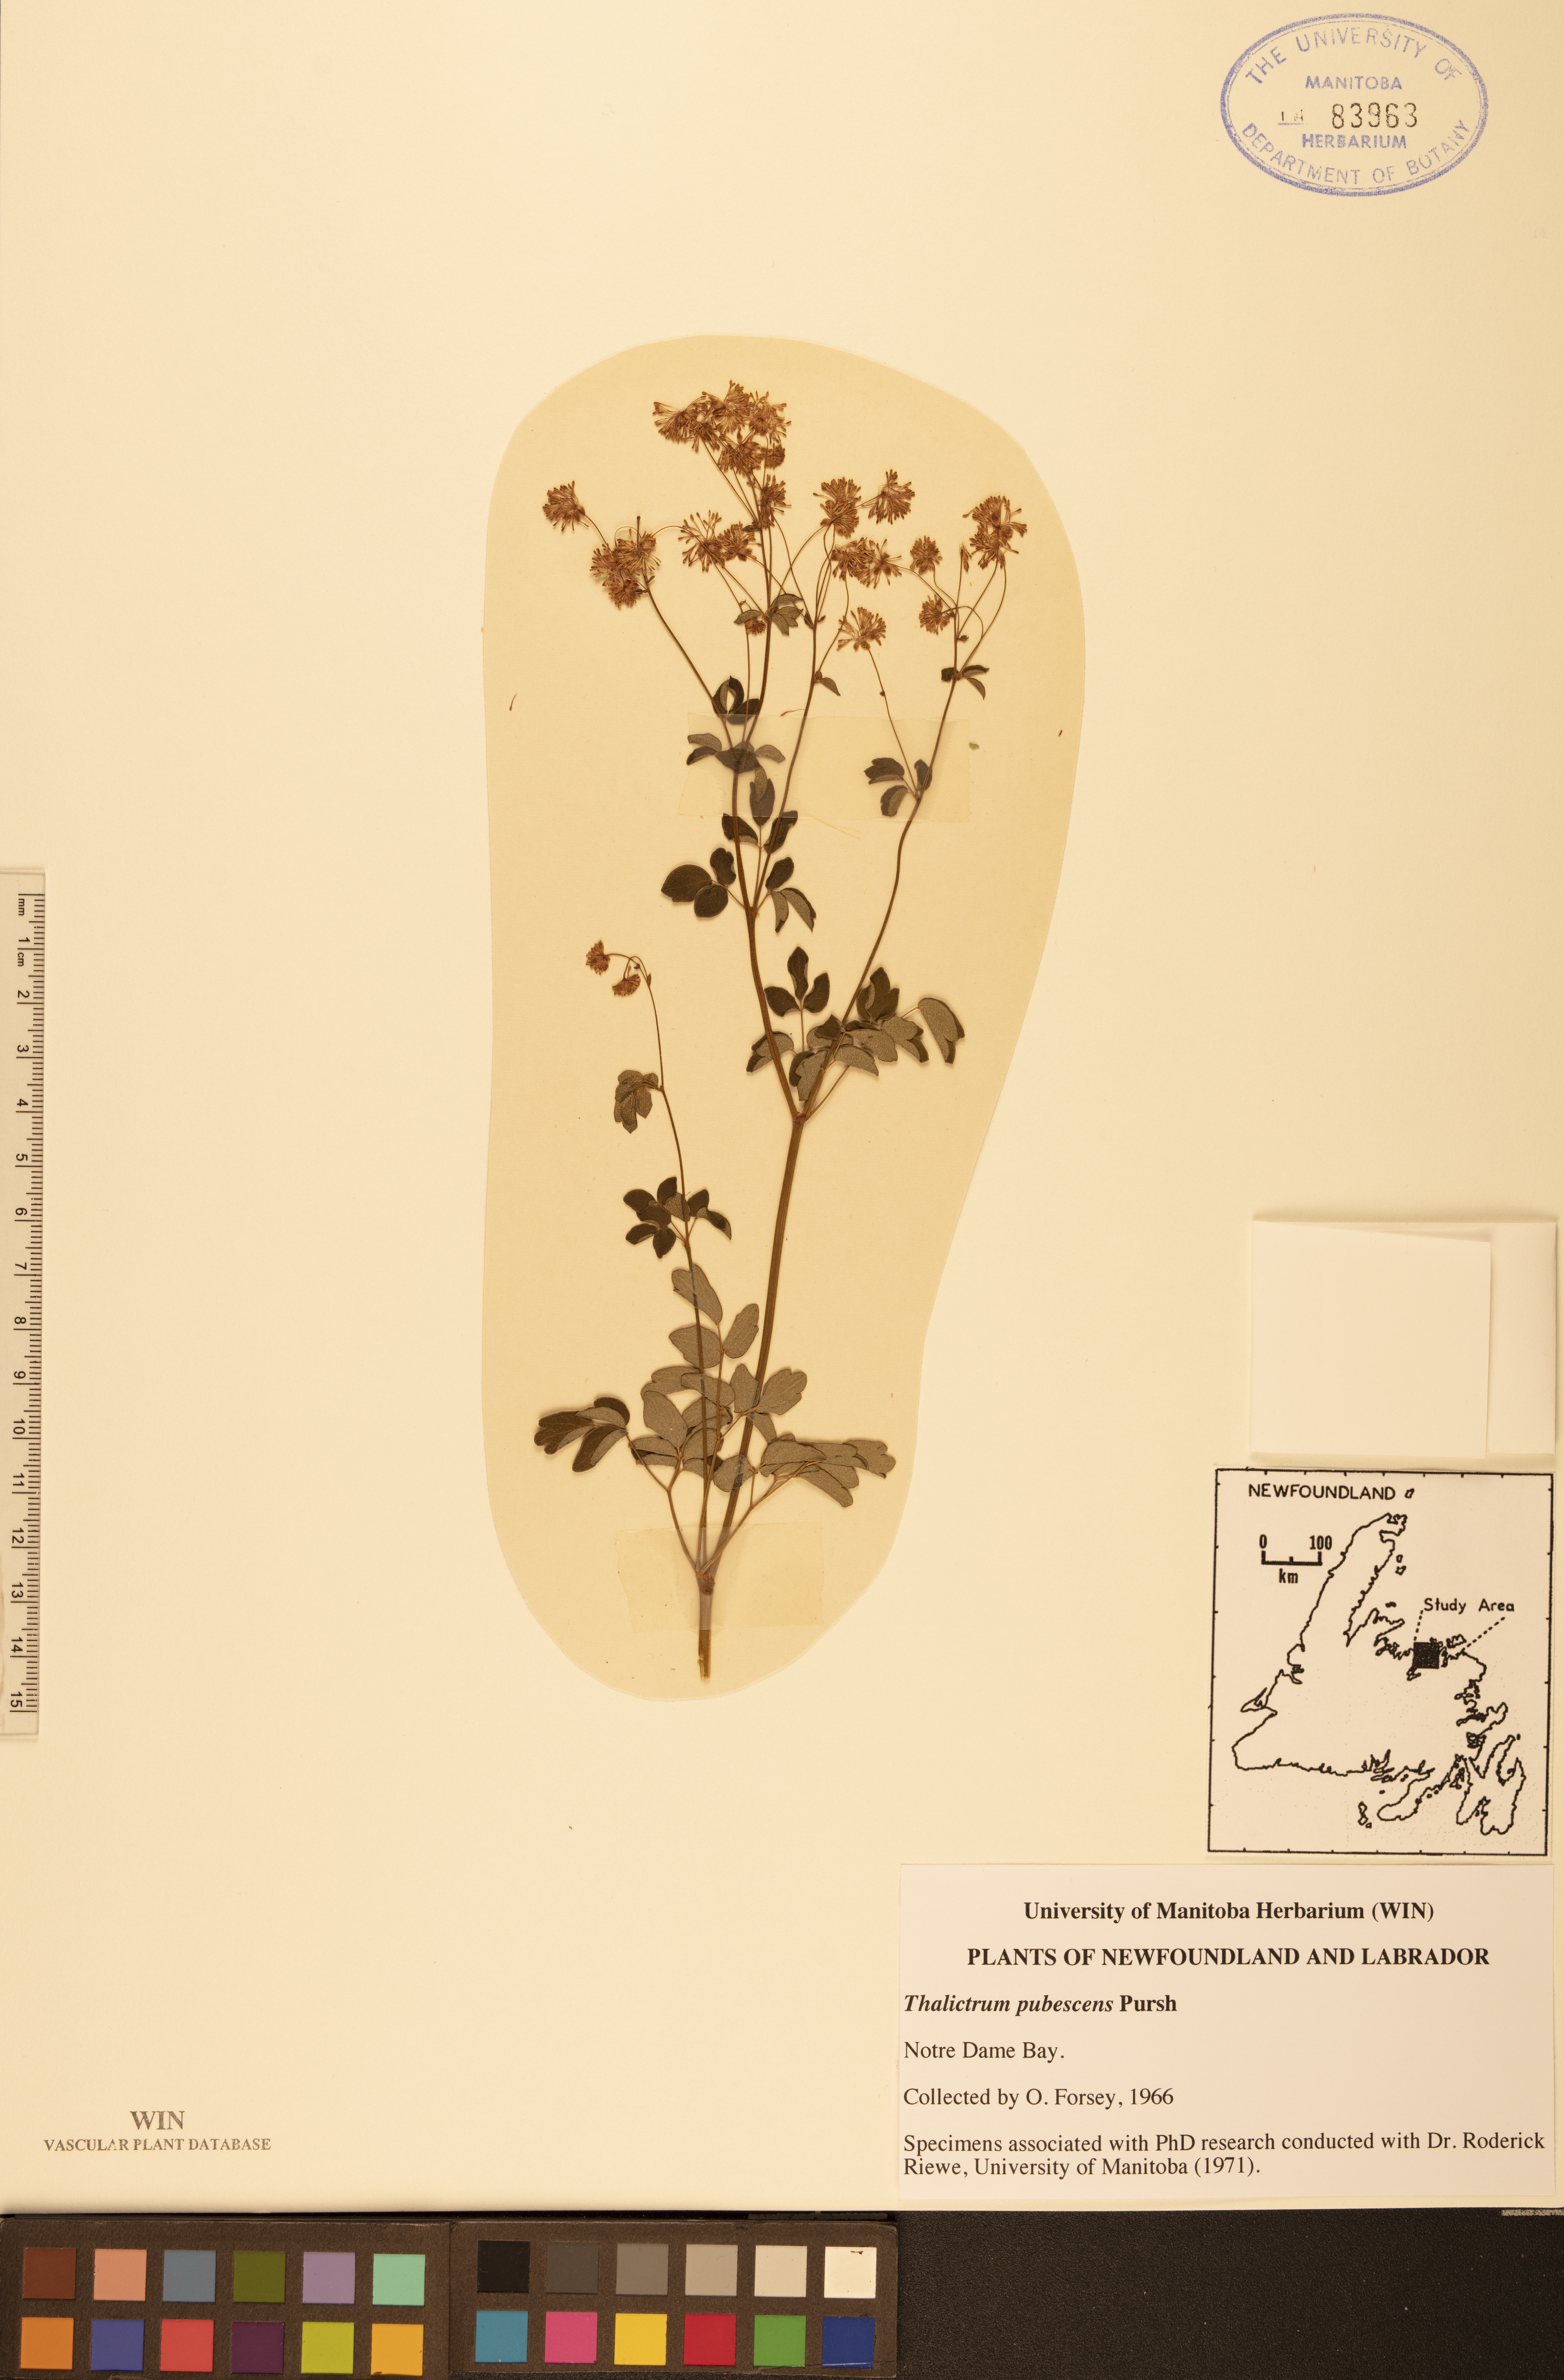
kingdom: Plantae
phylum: Tracheophyta
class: Magnoliopsida
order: Ranunculales
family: Ranunculaceae
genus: Thalictrum
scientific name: Thalictrum pubescens
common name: King-of-the-meadow
